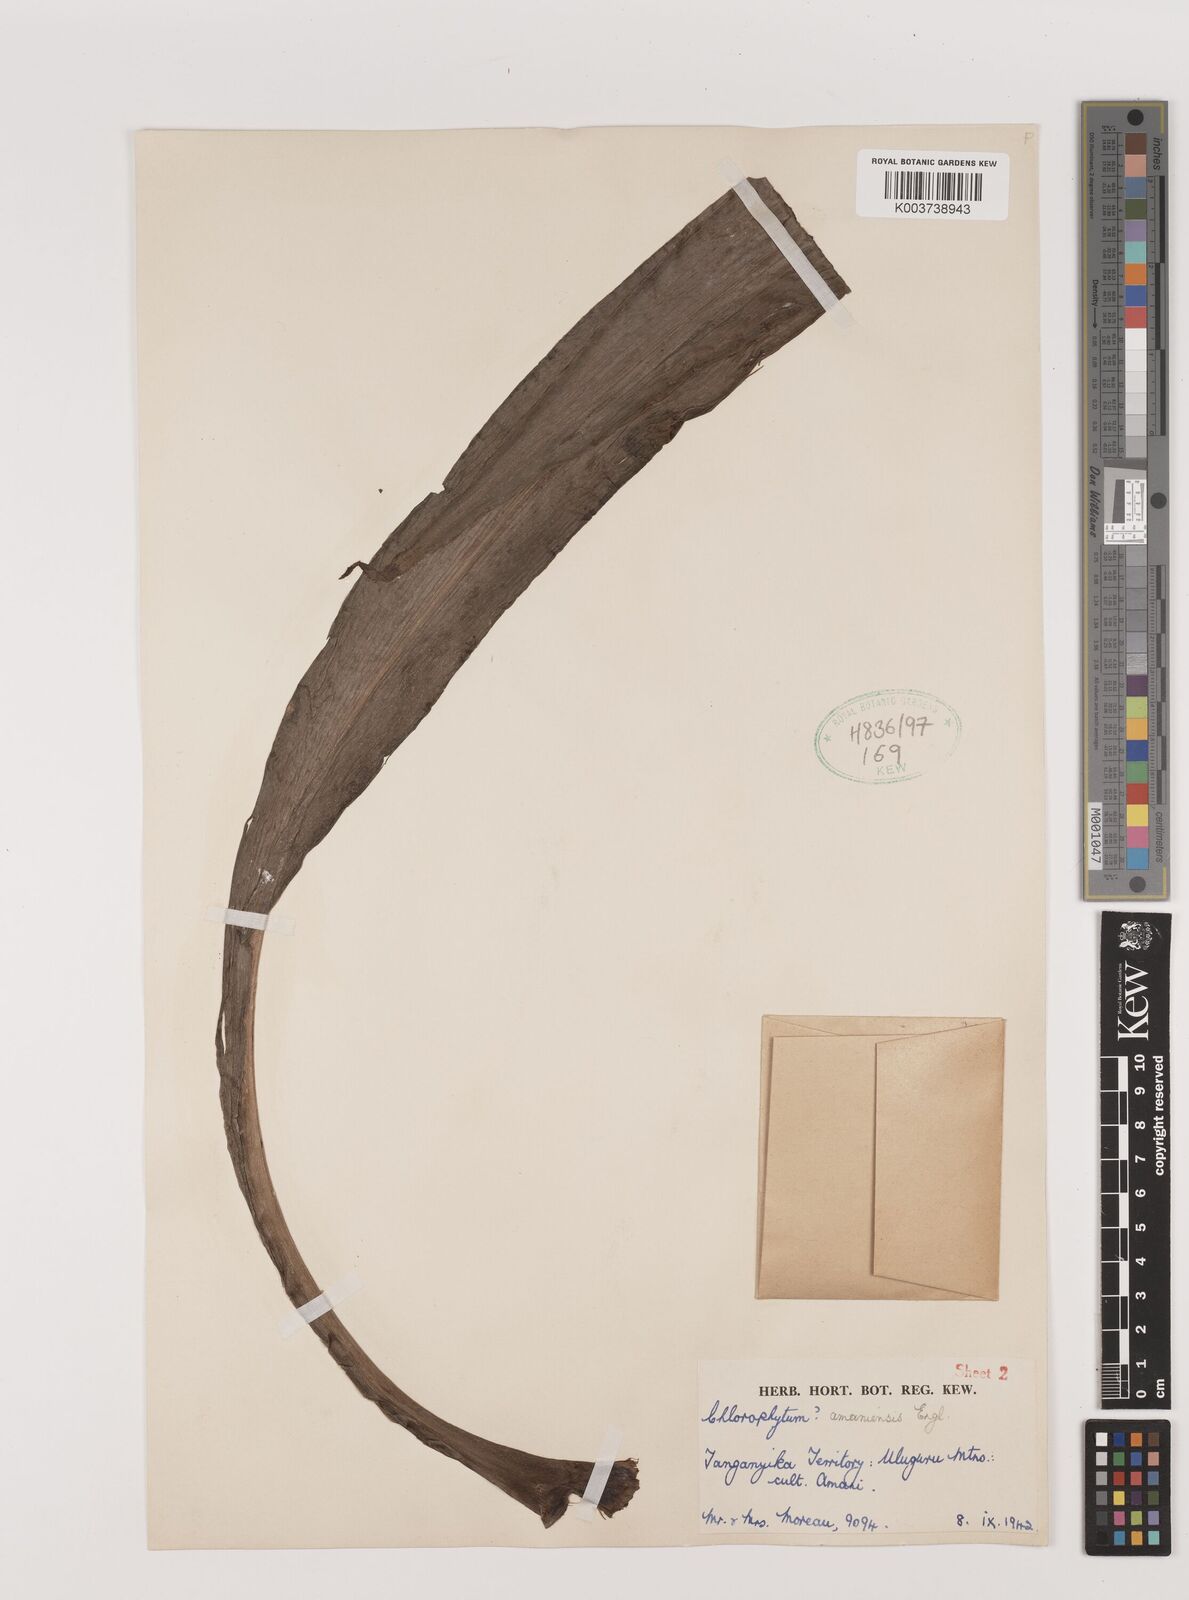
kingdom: Plantae
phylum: Tracheophyta
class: Liliopsida
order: Asparagales
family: Asparagaceae
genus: Chlorophytum
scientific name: Chlorophytum comosum
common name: Spider plant
